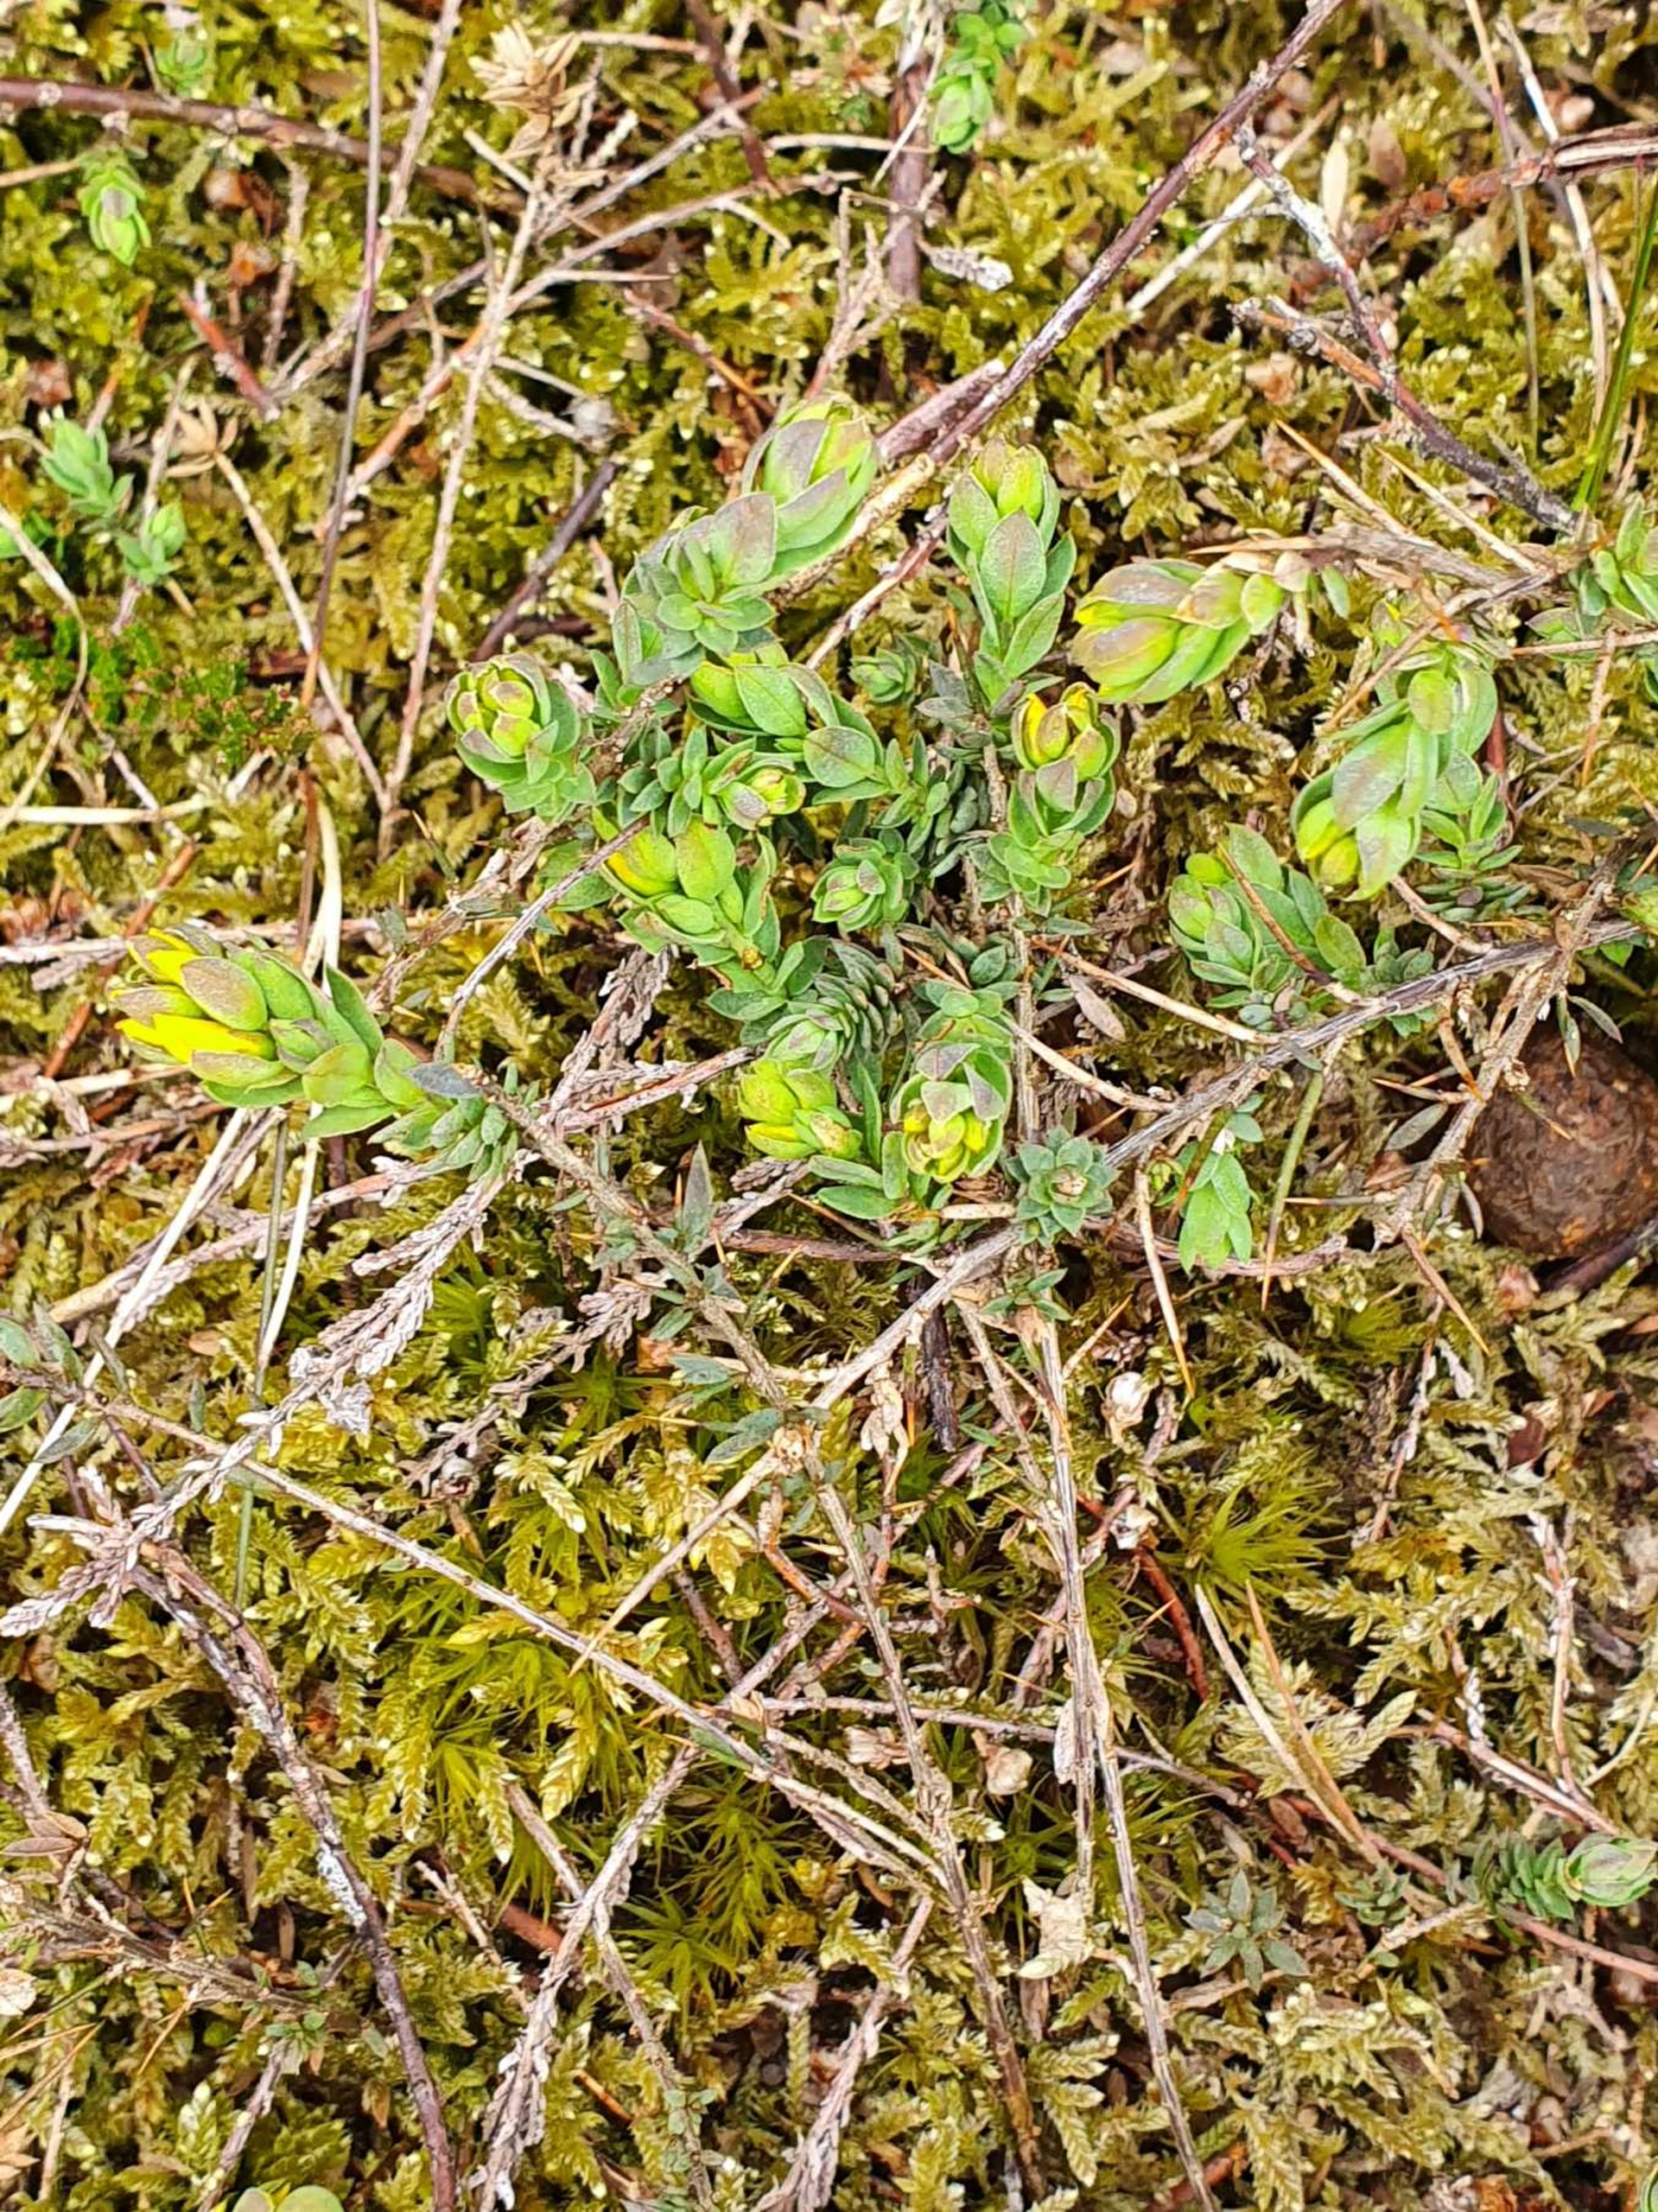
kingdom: Plantae
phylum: Tracheophyta
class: Magnoliopsida
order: Fabales
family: Fabaceae
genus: Genista
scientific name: Genista anglica
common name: Engelsk visse
